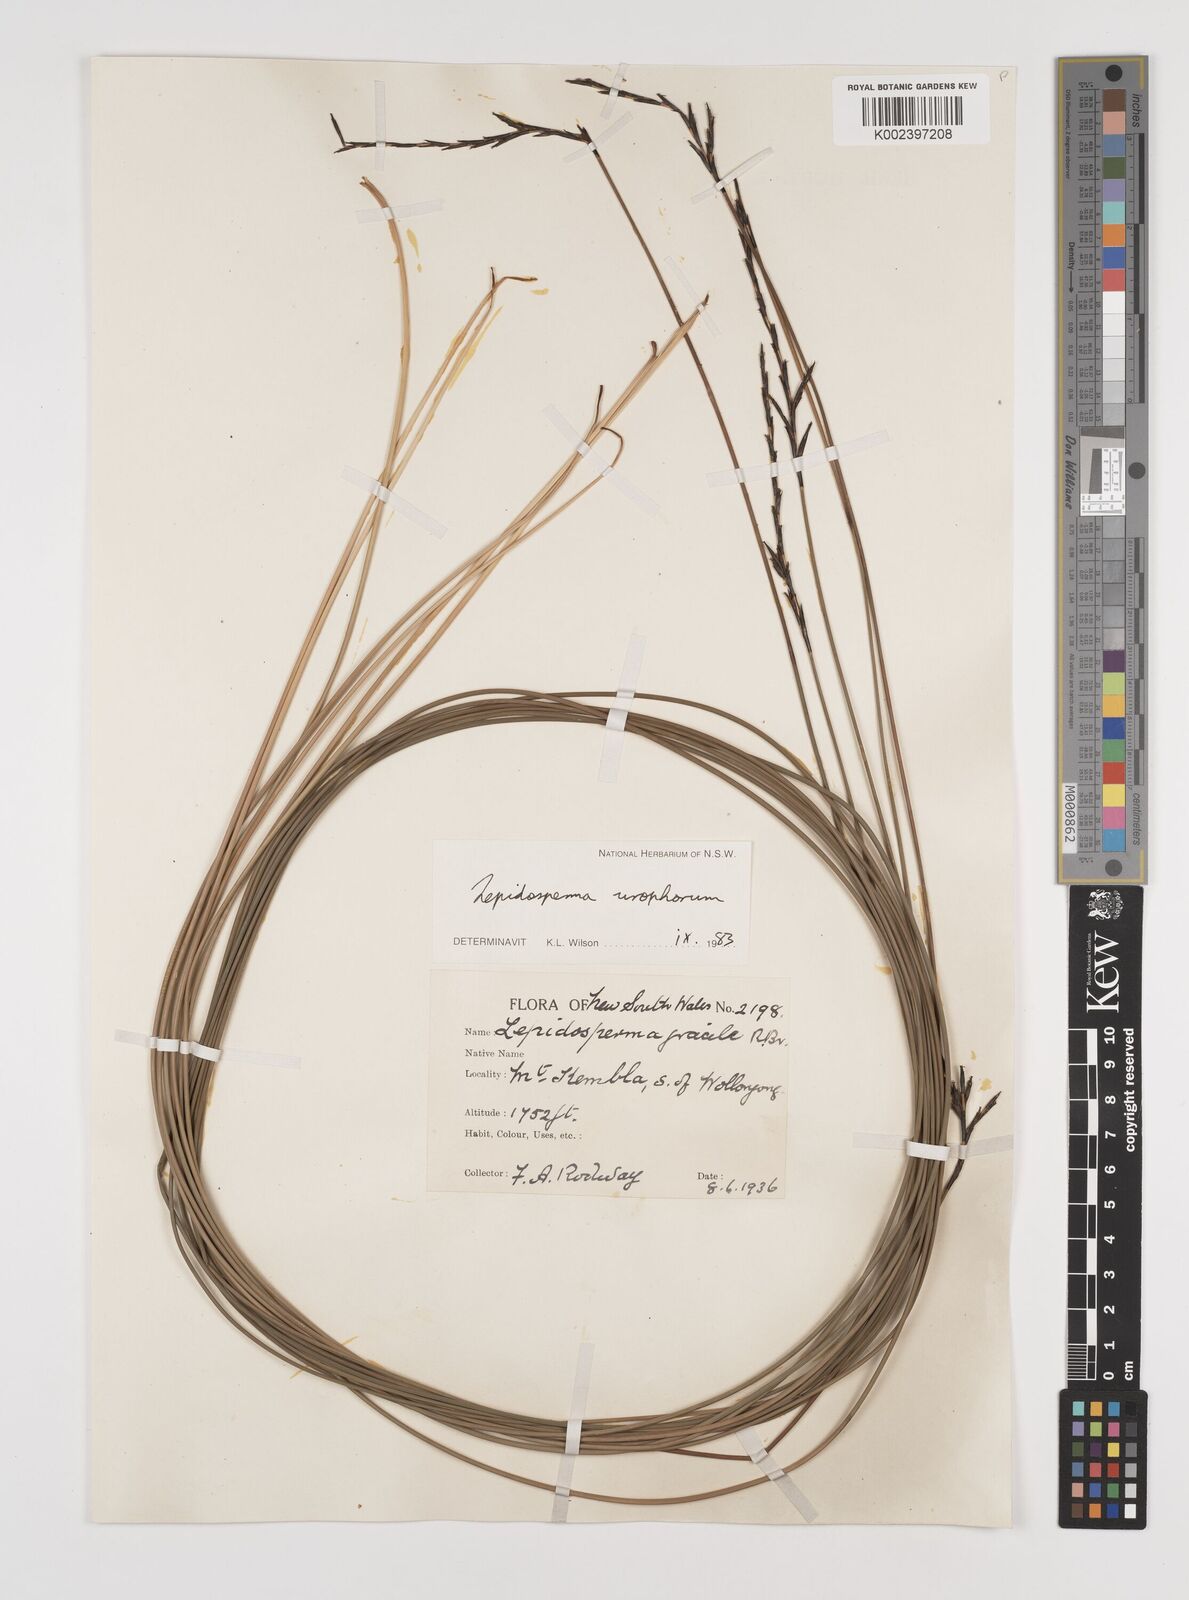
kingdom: Plantae
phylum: Tracheophyta
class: Liliopsida
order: Poales
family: Cyperaceae
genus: Lepidosperma
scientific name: Lepidosperma urophorum
